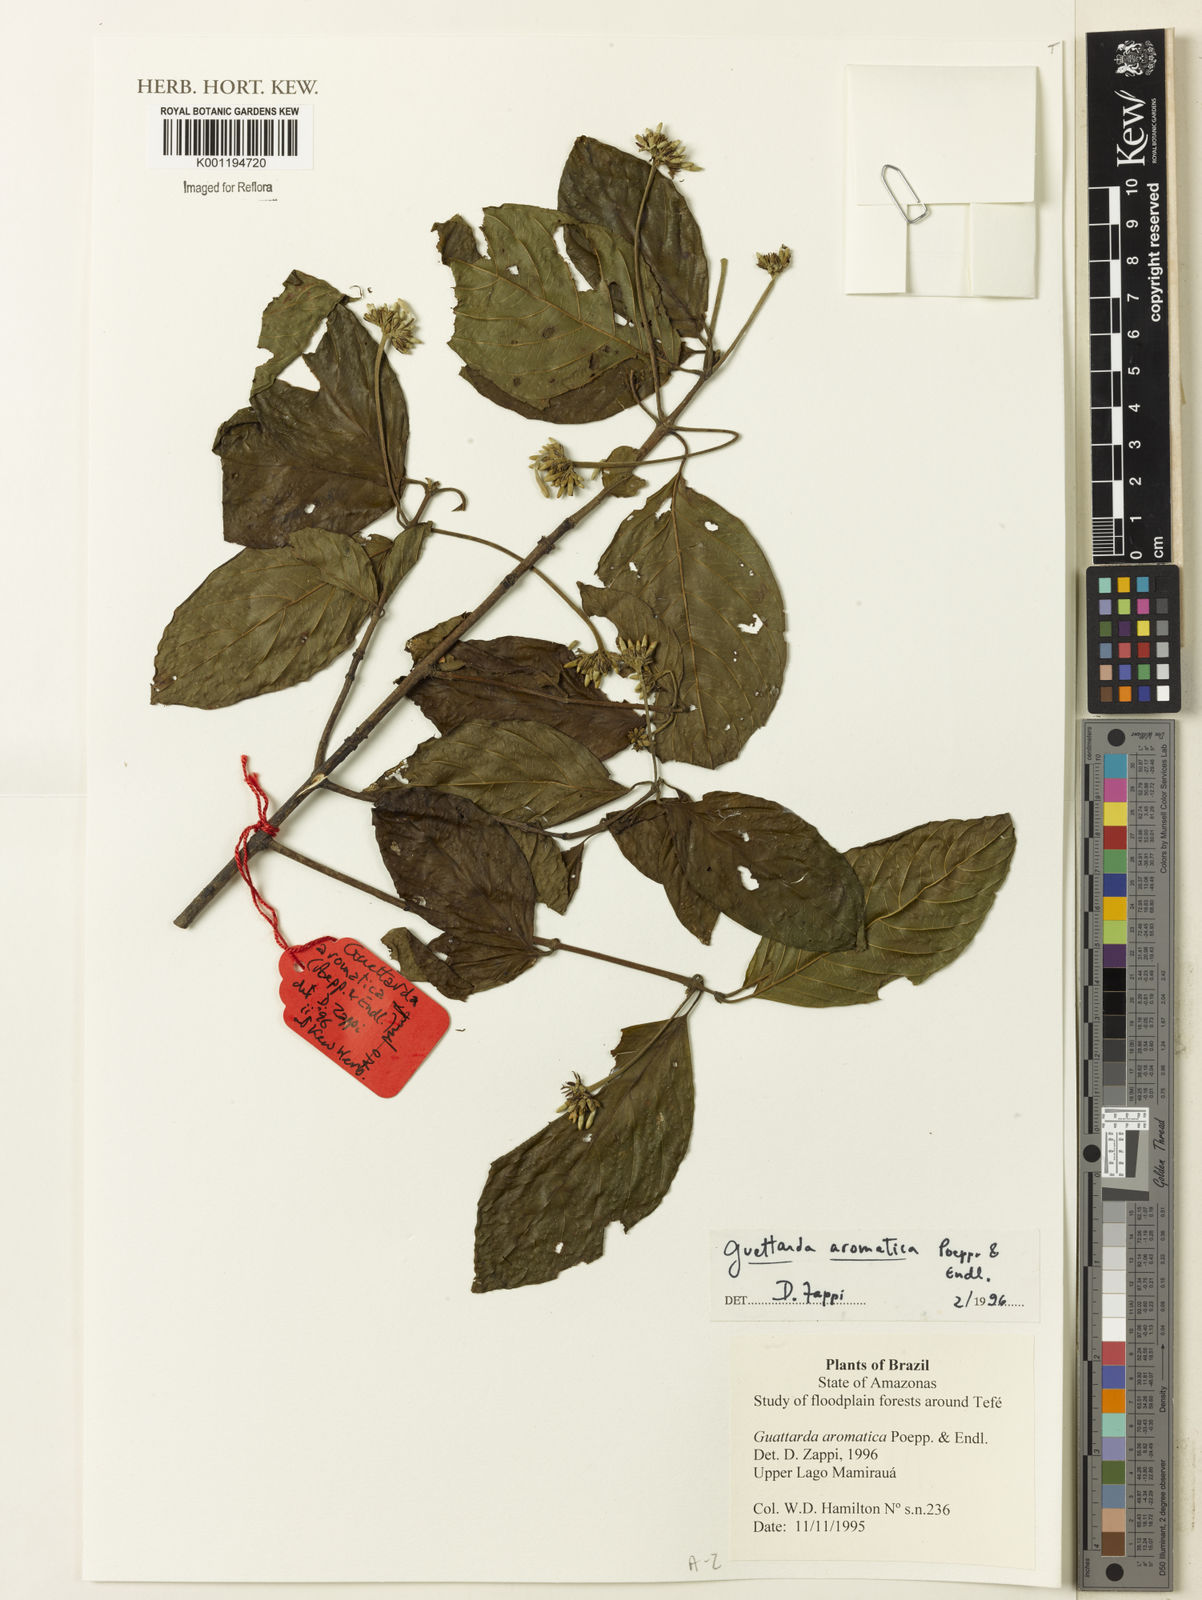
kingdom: Plantae
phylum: Tracheophyta
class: Magnoliopsida
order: Gentianales
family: Rubiaceae
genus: Guettarda
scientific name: Guettarda aromatica
